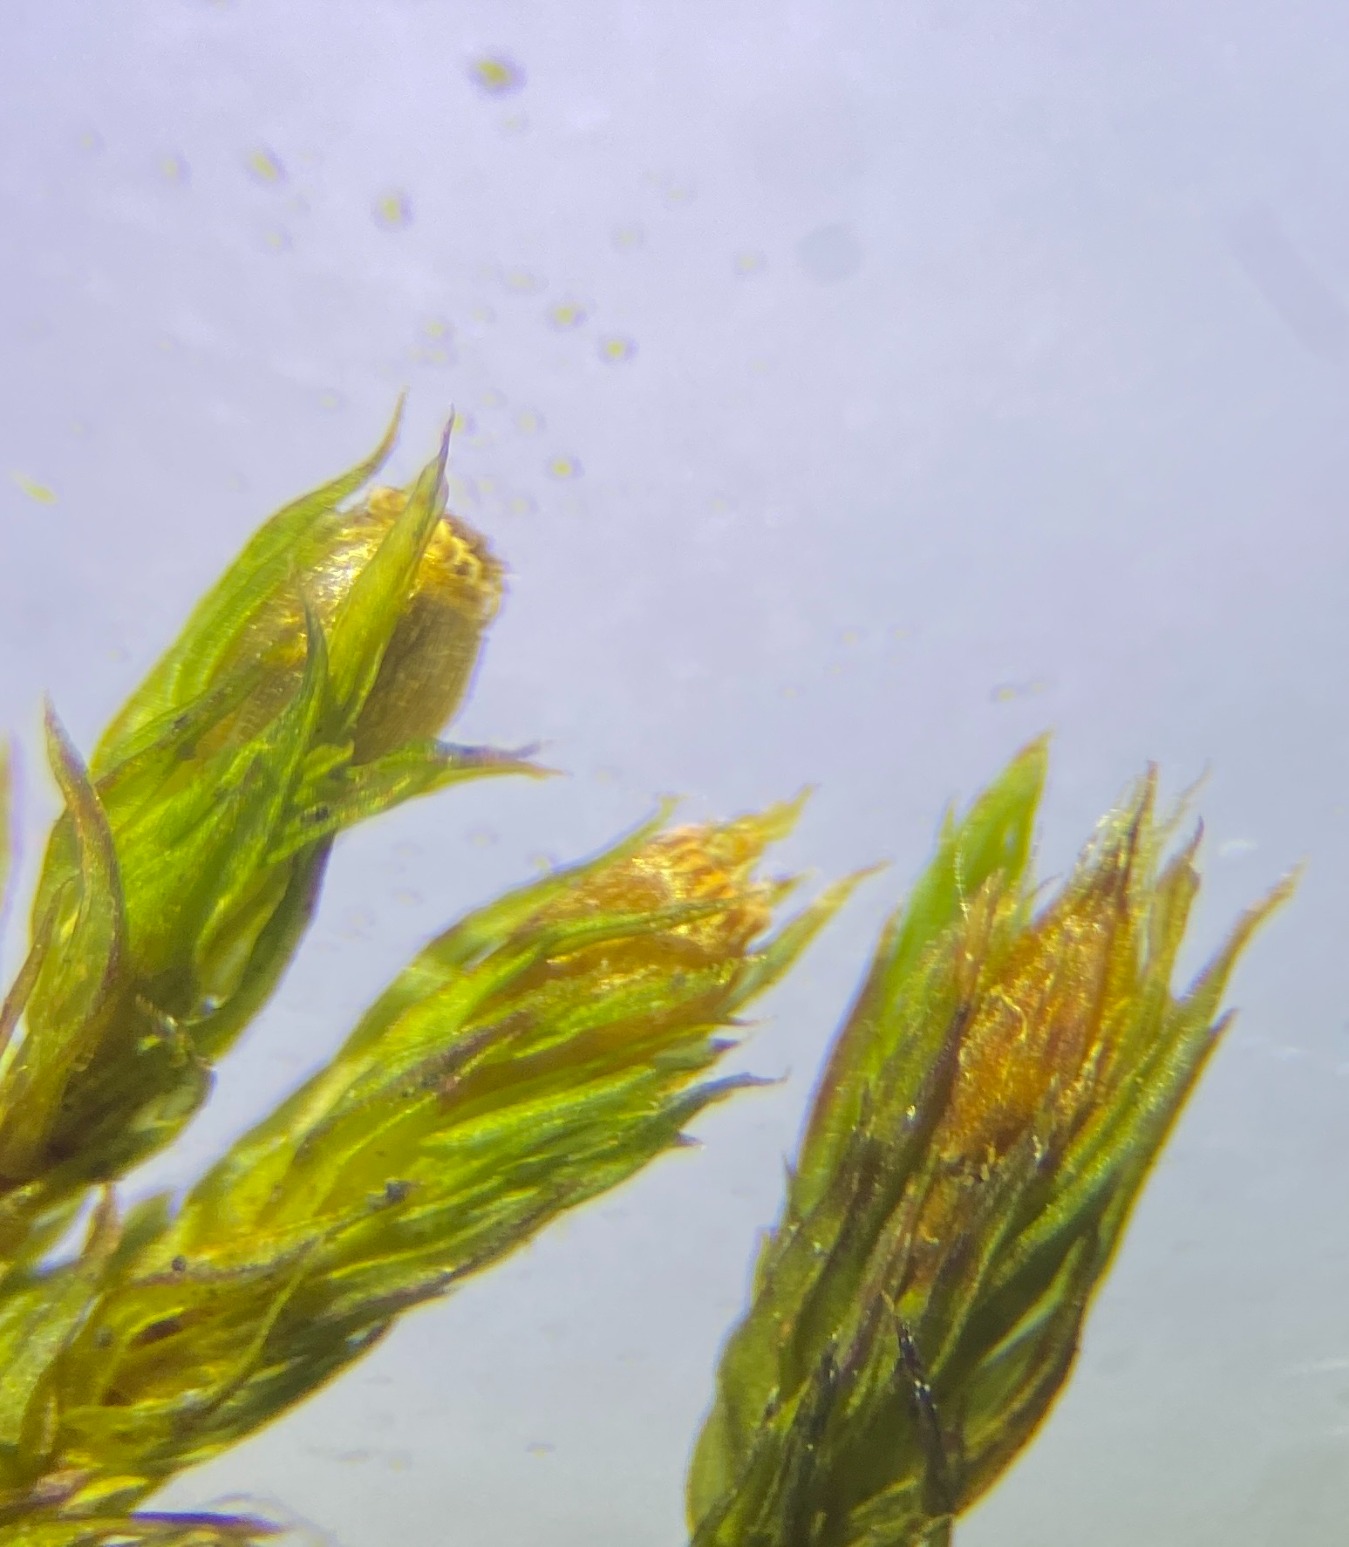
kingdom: Plantae
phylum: Bryophyta
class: Bryopsida
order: Orthotrichales
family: Orthotrichaceae
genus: Lewinskya
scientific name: Lewinskya striata
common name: Glatkapslet furehætte
